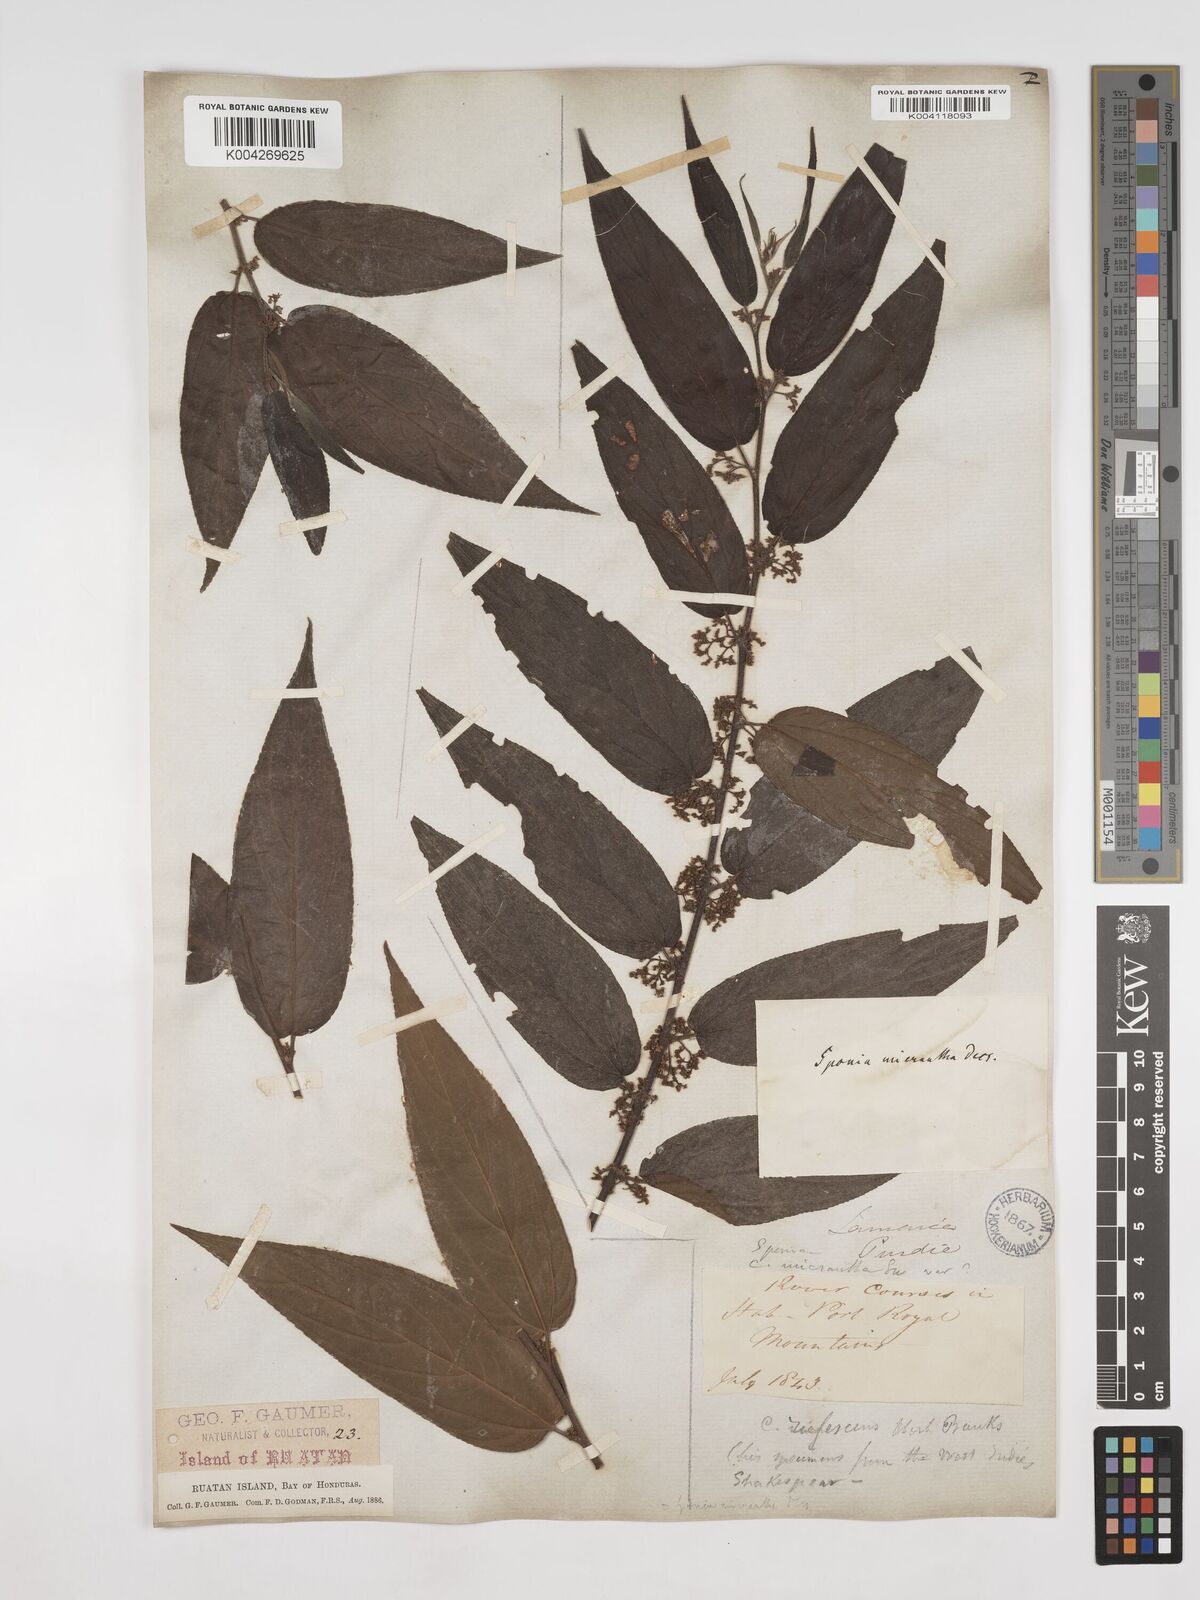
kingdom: Plantae
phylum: Tracheophyta
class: Magnoliopsida
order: Rosales
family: Cannabaceae
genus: Trema
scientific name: Trema micranthum
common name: Jamaican nettletree
